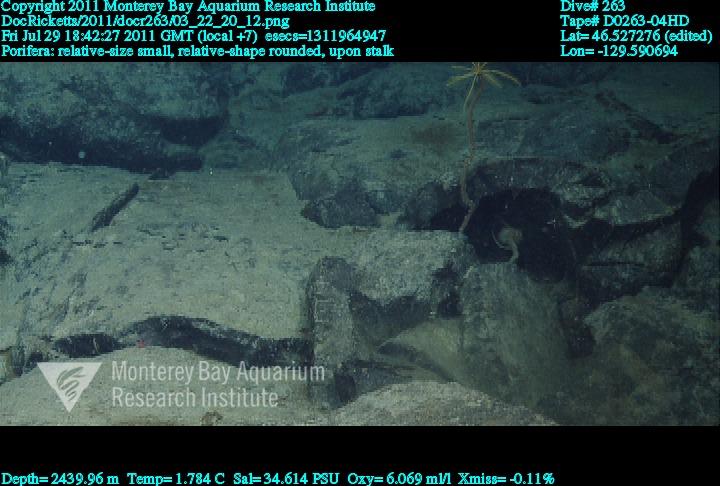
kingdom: Animalia
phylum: Porifera
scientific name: Porifera
